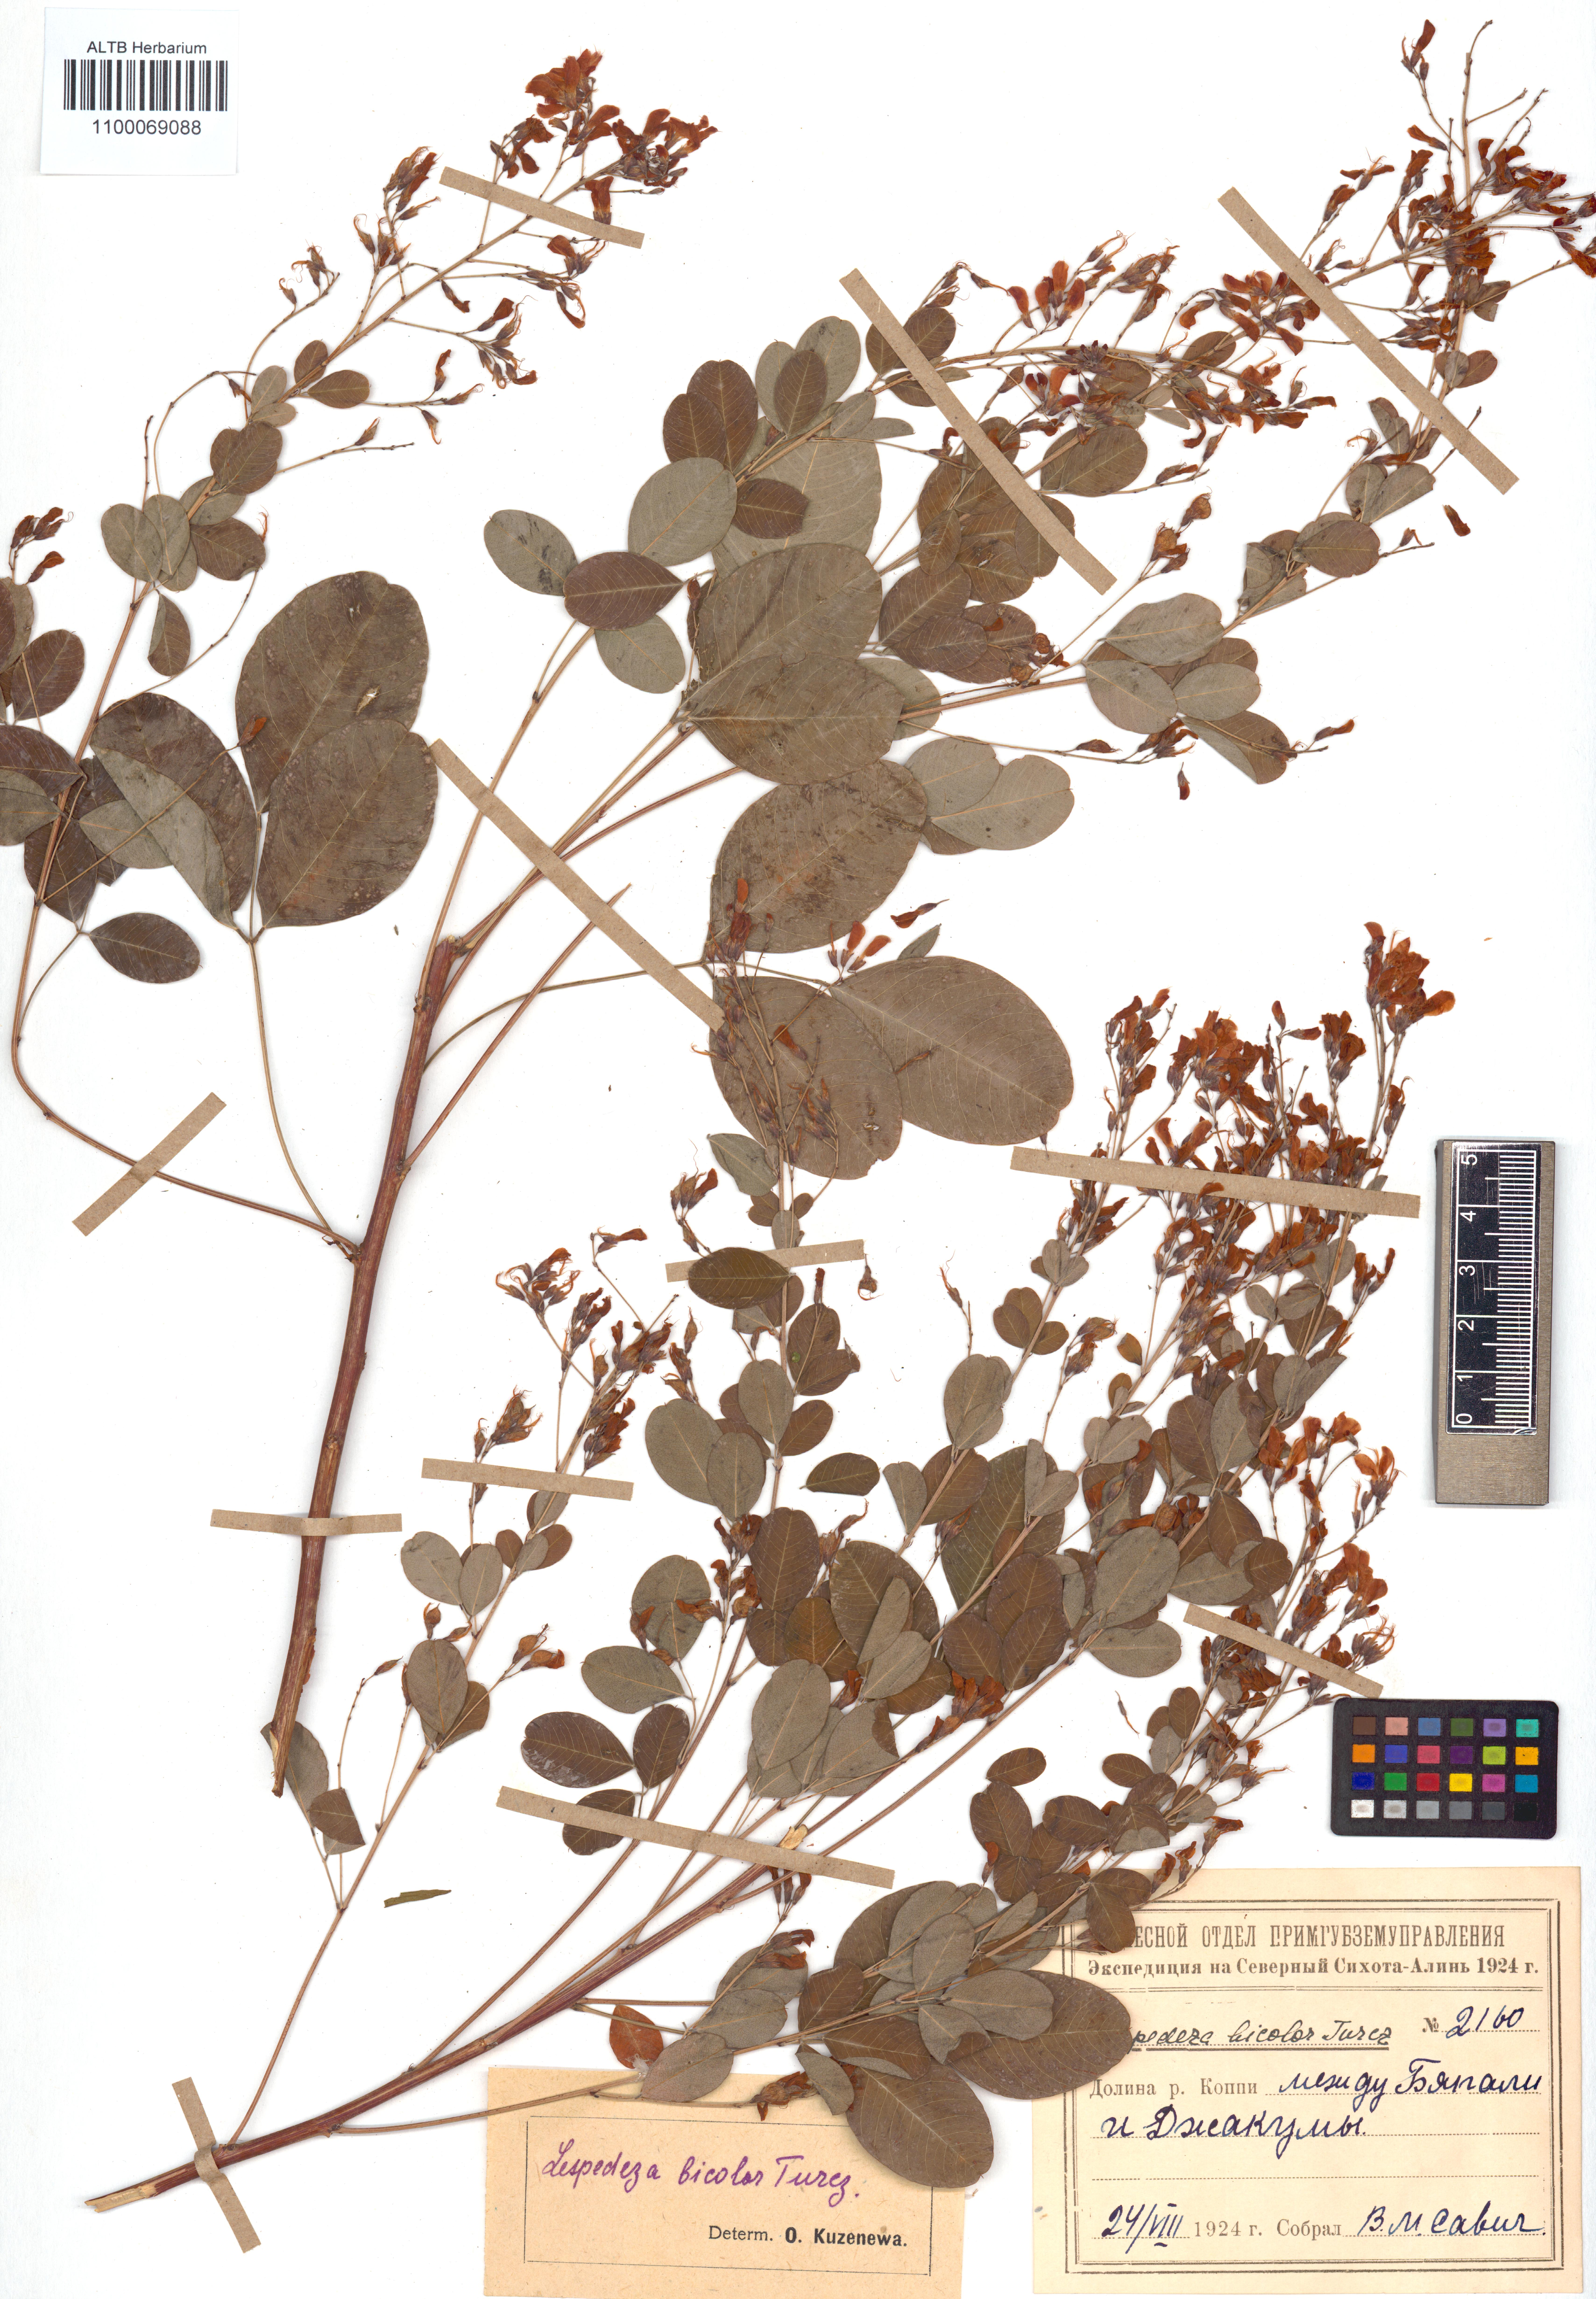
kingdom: Plantae
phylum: Tracheophyta
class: Magnoliopsida
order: Fabales
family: Fabaceae
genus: Lespedeza
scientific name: Lespedeza bicolor
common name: Shrub lespedeza
